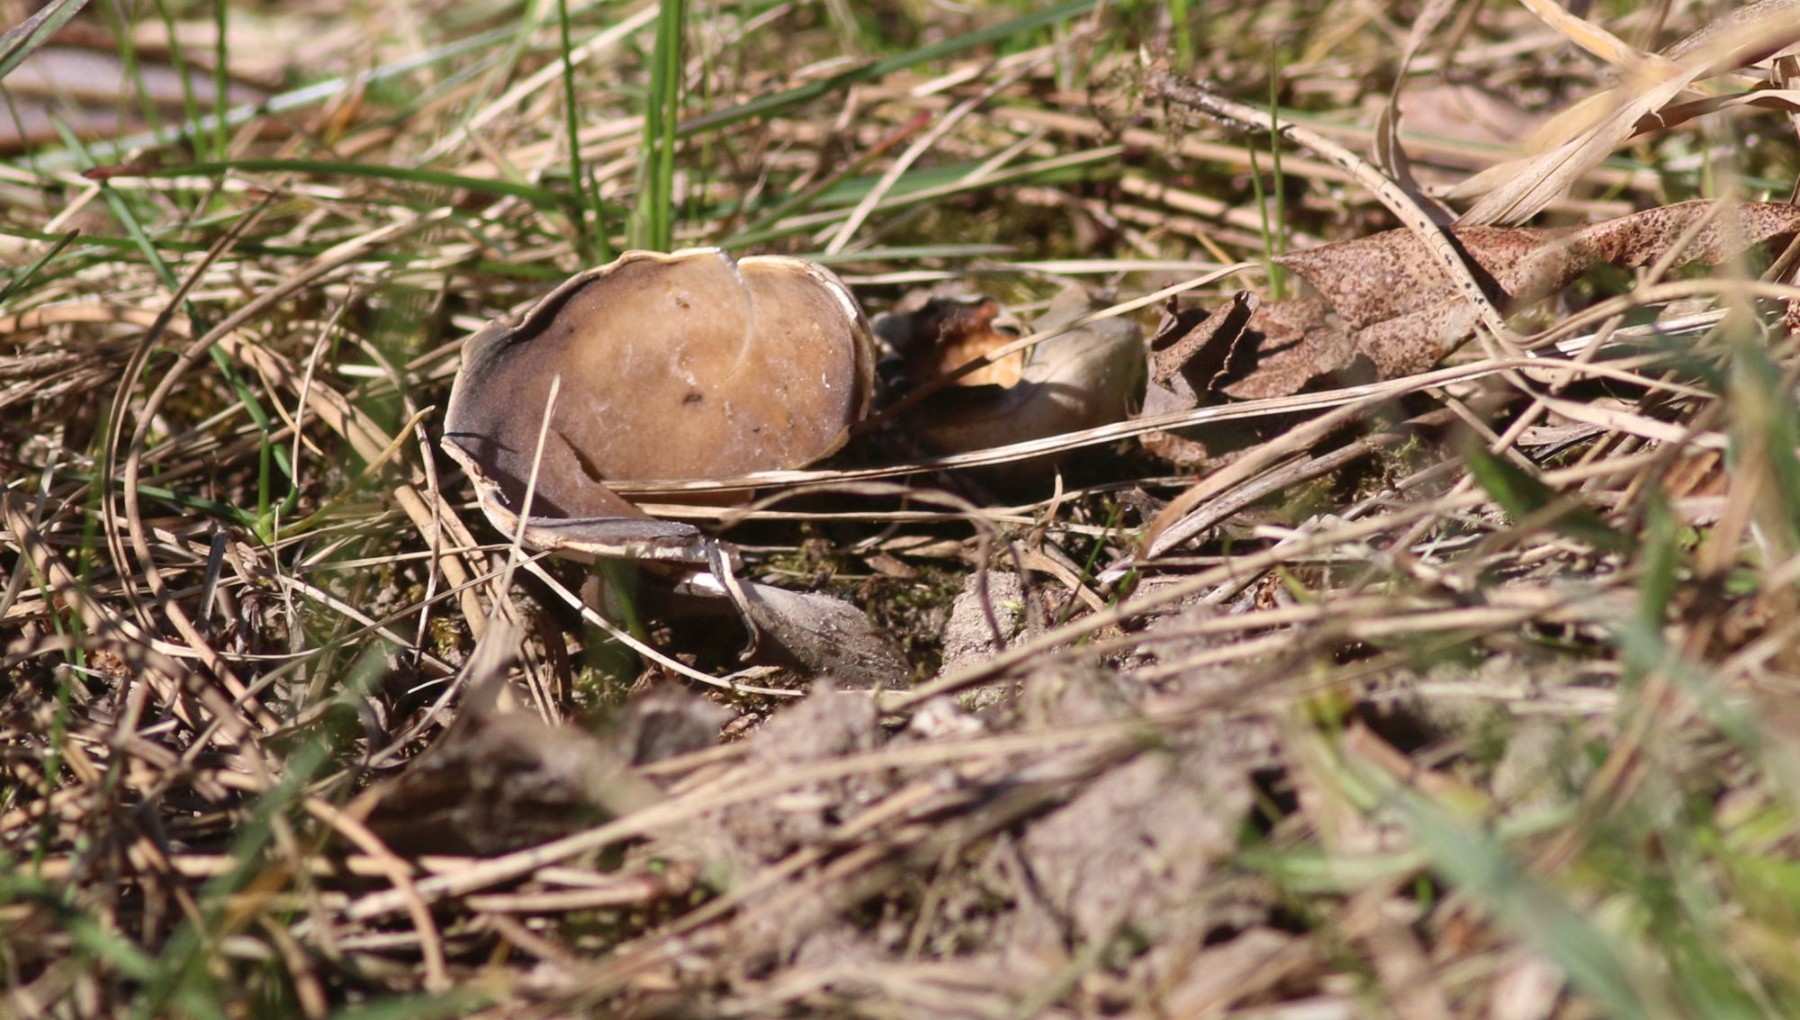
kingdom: Fungi
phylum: Ascomycota
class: Pezizomycetes
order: Pezizales
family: Helvellaceae
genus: Dissingia
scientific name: Dissingia leucomelaena
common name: sorthvid foldhat
